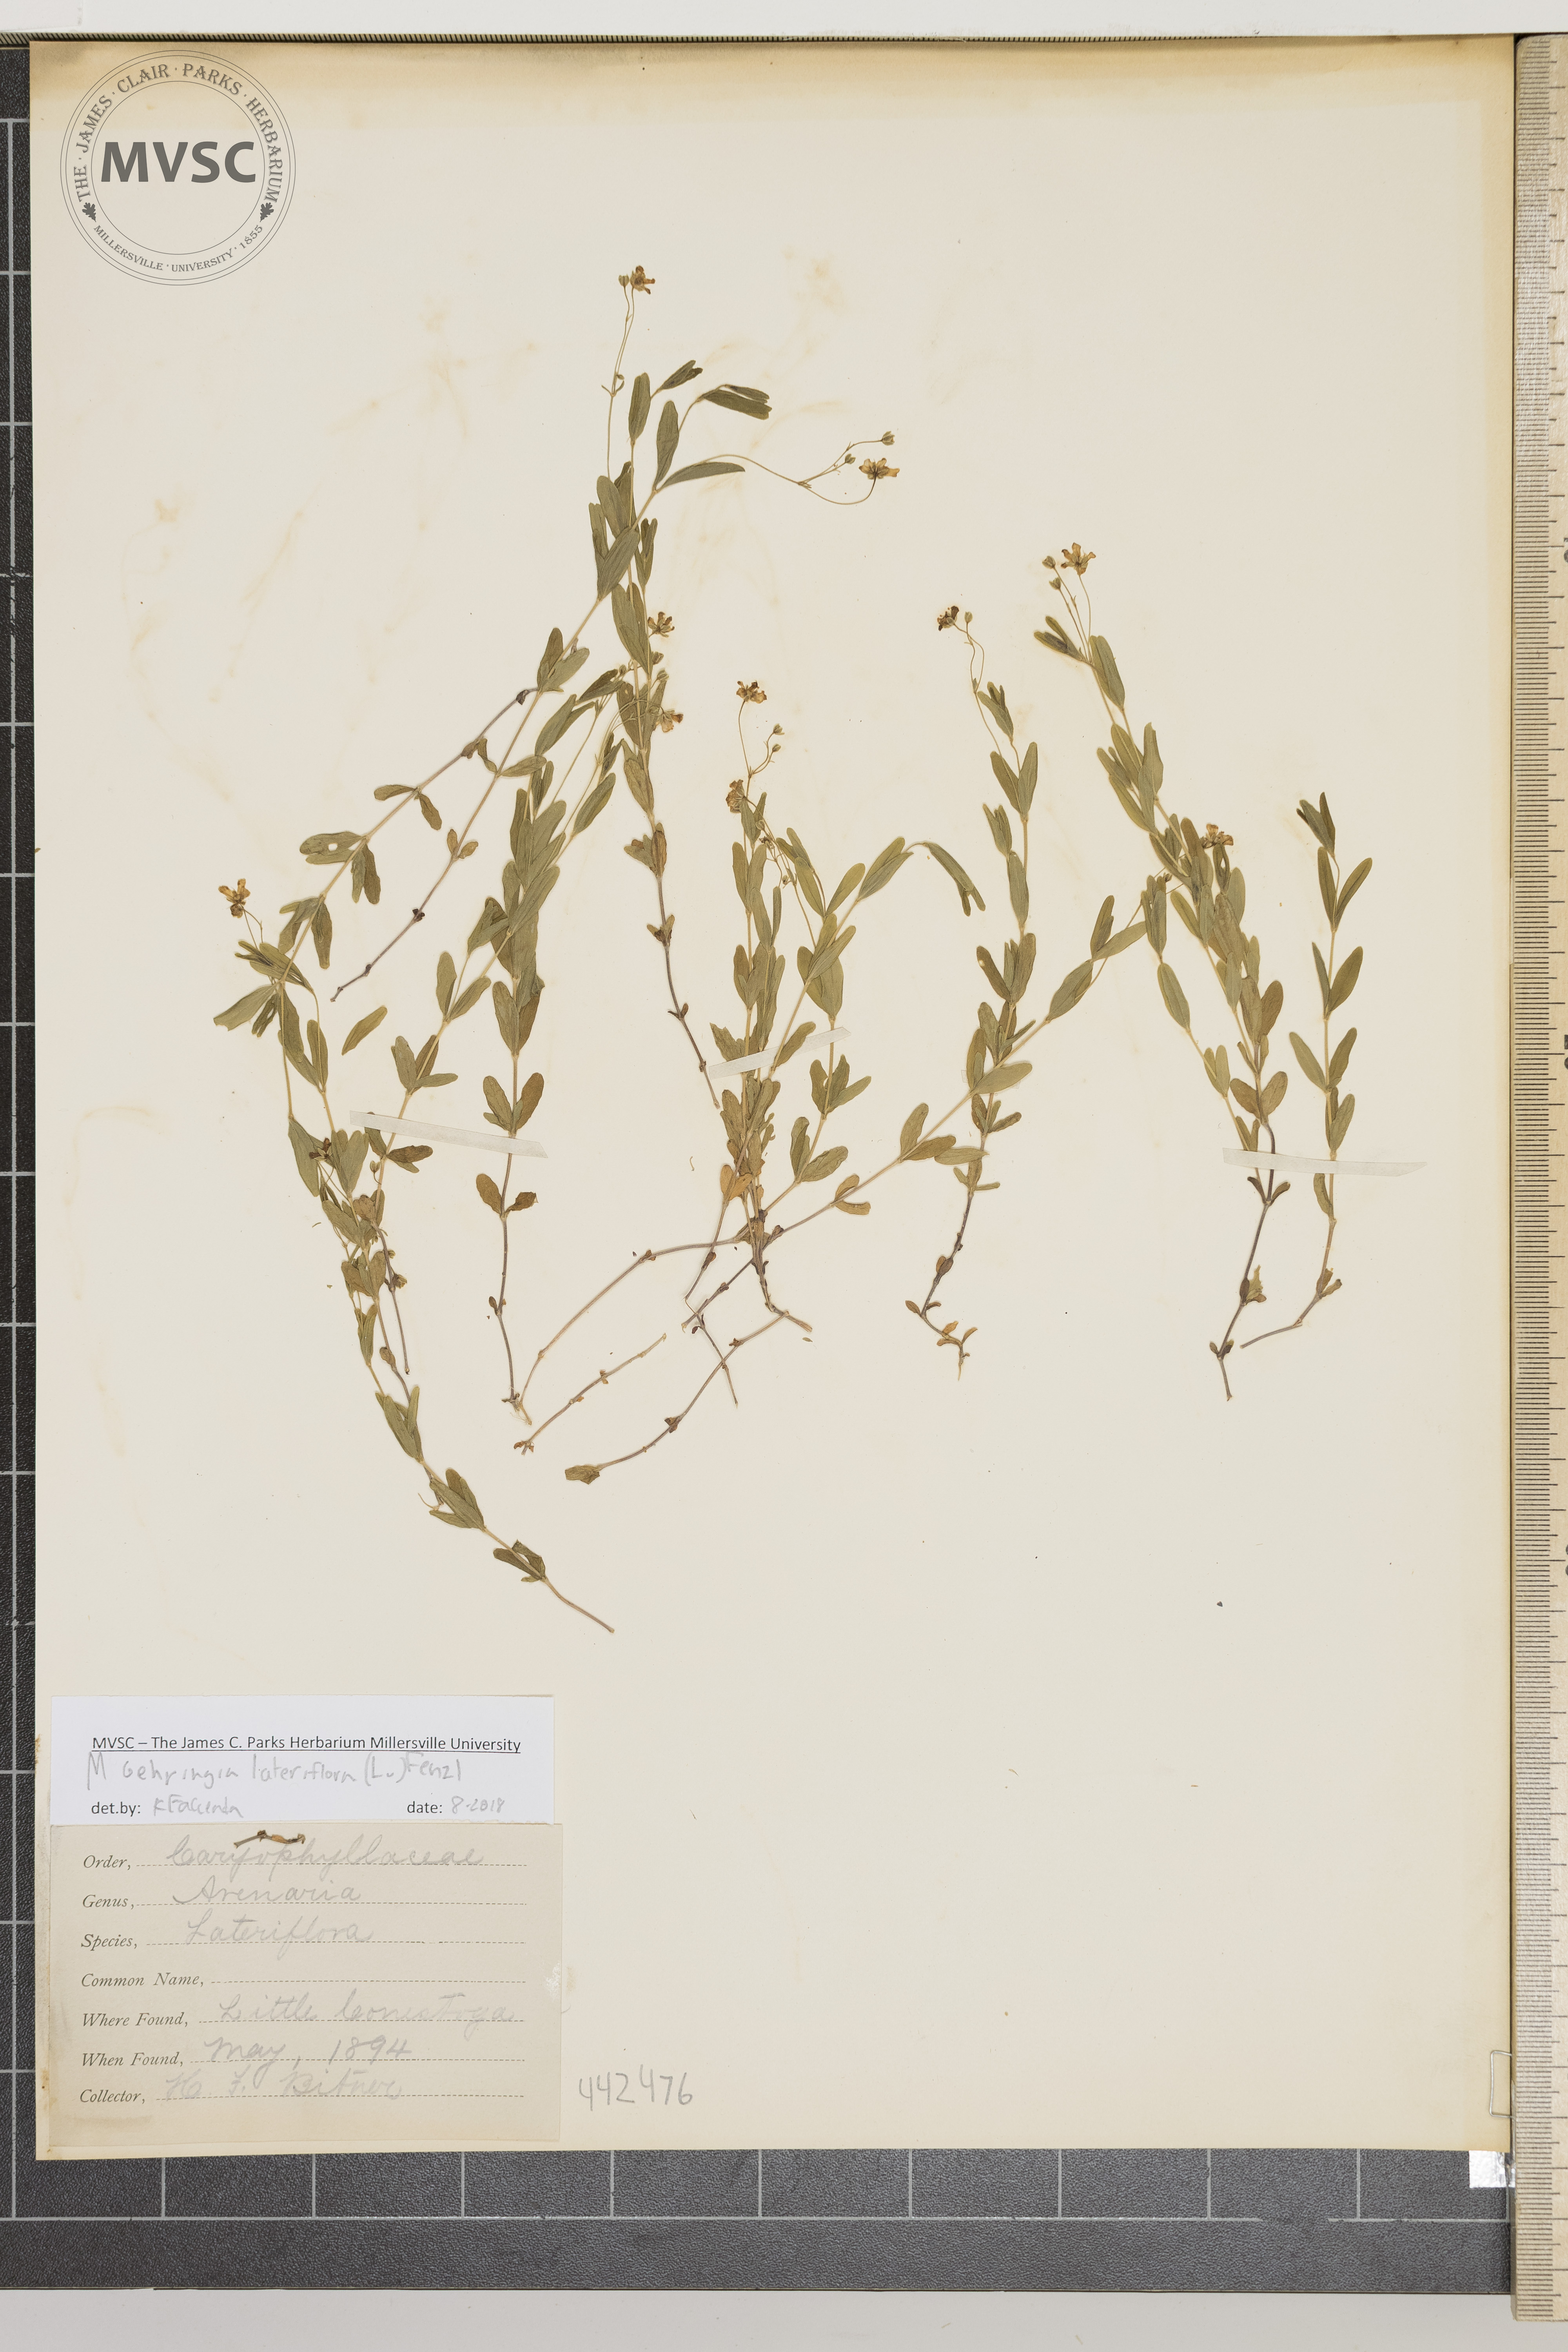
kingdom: Plantae
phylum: Tracheophyta
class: Magnoliopsida
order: Caryophyllales
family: Caryophyllaceae
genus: Moehringia
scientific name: Moehringia lateriflora
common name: Blunt-leaved sandwort
